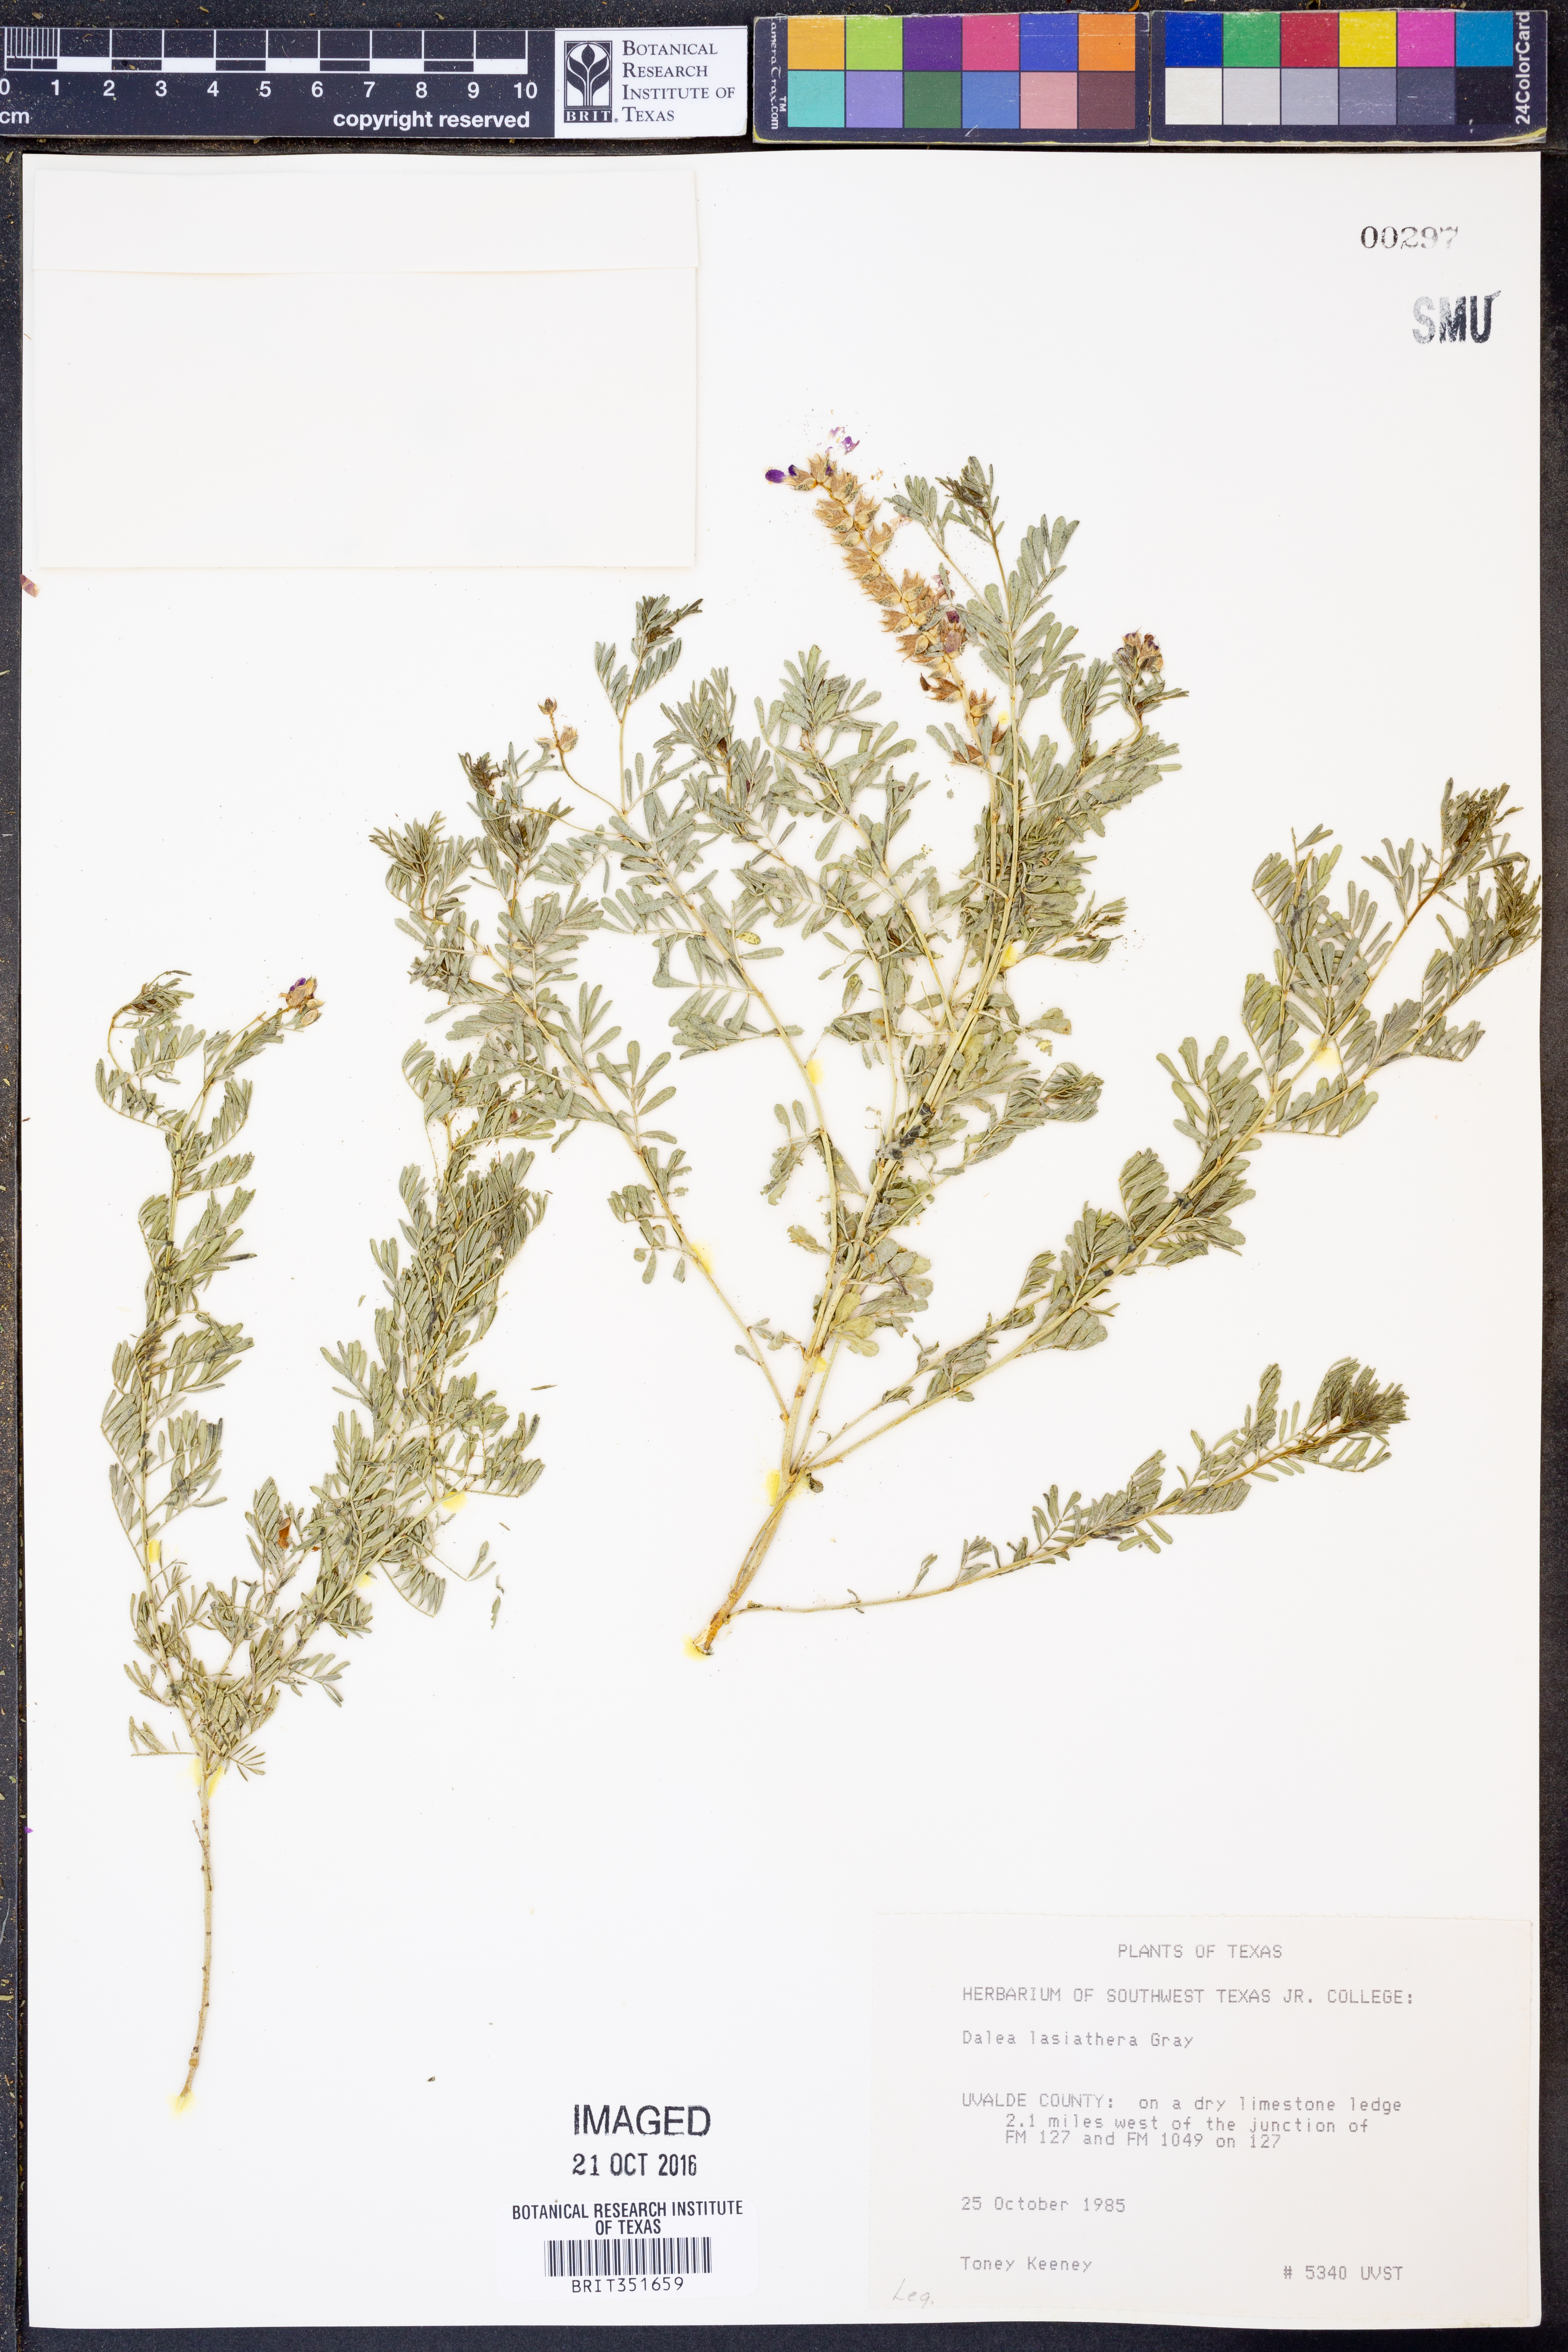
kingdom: Plantae
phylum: Tracheophyta
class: Magnoliopsida
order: Fabales
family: Fabaceae
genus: Dalea
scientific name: Dalea lasiathera
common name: Purple prairie-clover
